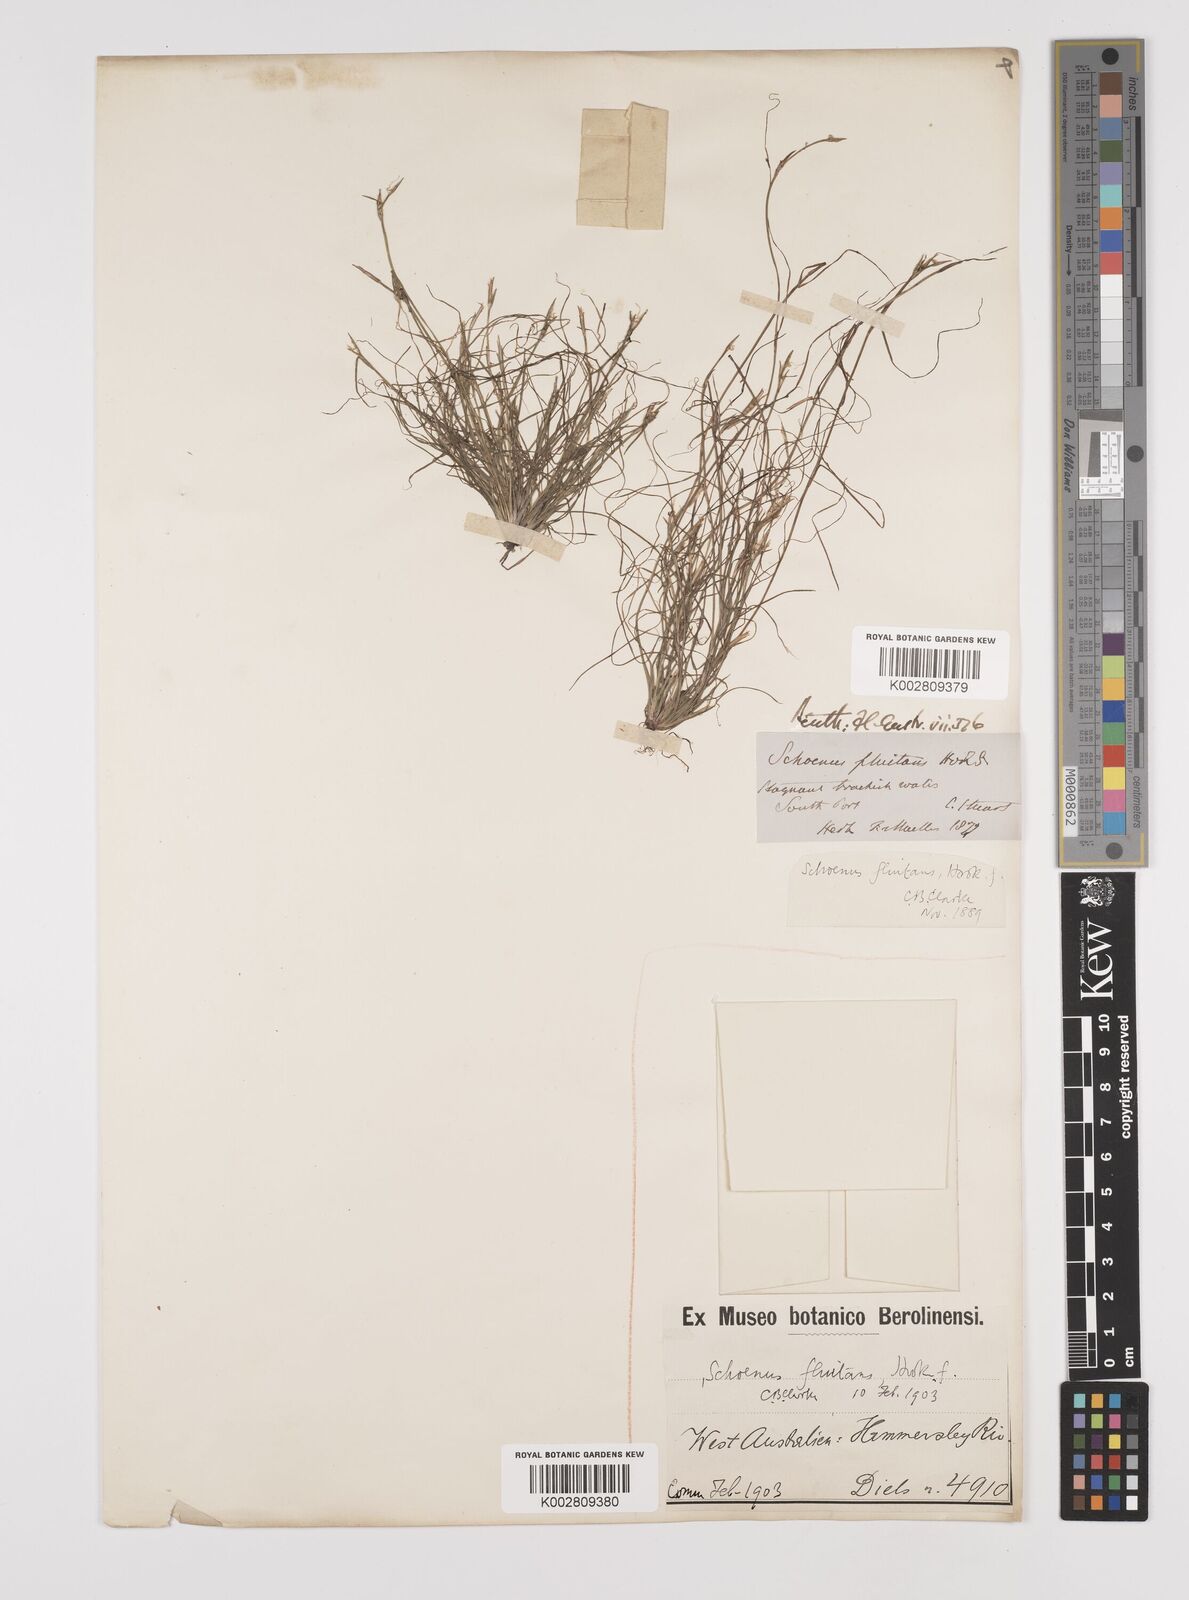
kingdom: Plantae
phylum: Tracheophyta
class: Liliopsida
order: Poales
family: Cyperaceae
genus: Schoenus
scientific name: Schoenus fluitans
